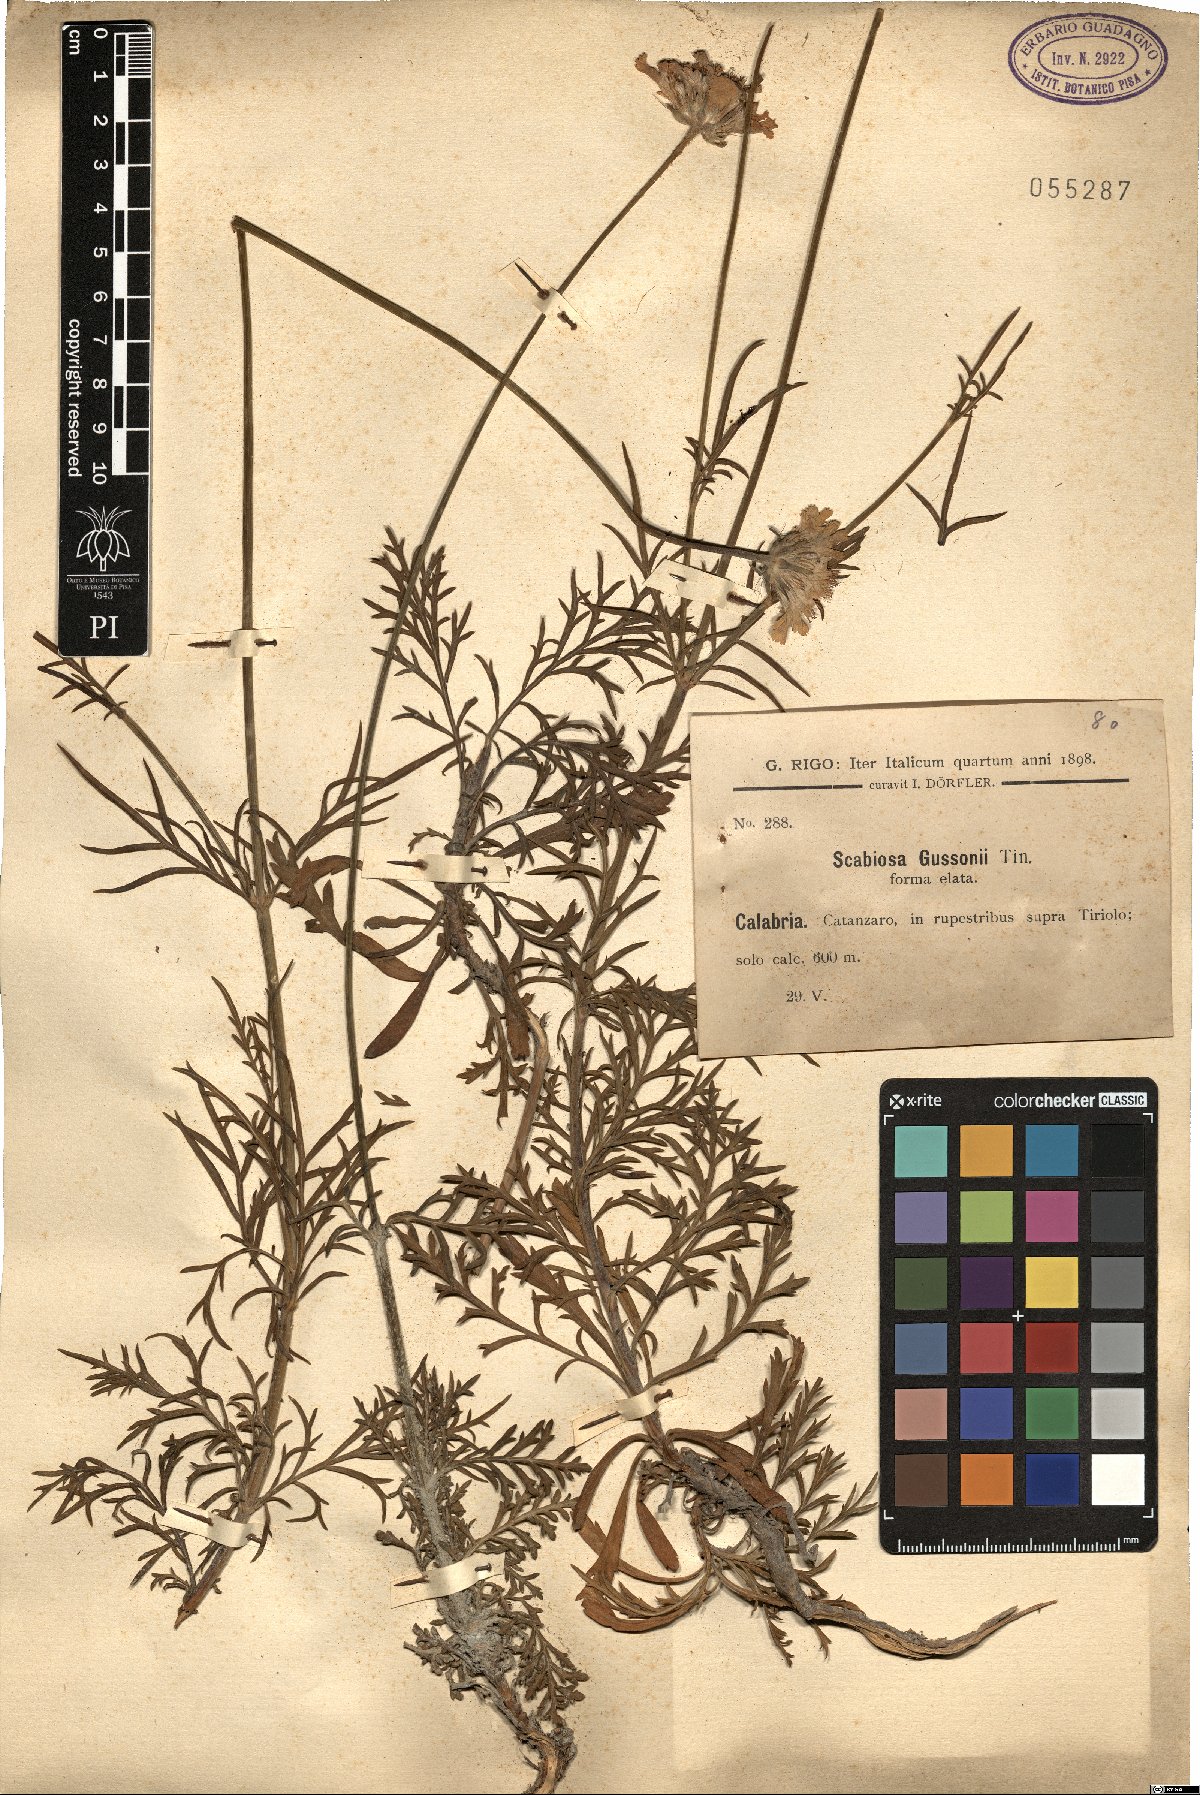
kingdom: Plantae
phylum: Tracheophyta
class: Magnoliopsida
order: Dipsacales
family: Caprifoliaceae
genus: Lomelosia
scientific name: Lomelosia crenata
